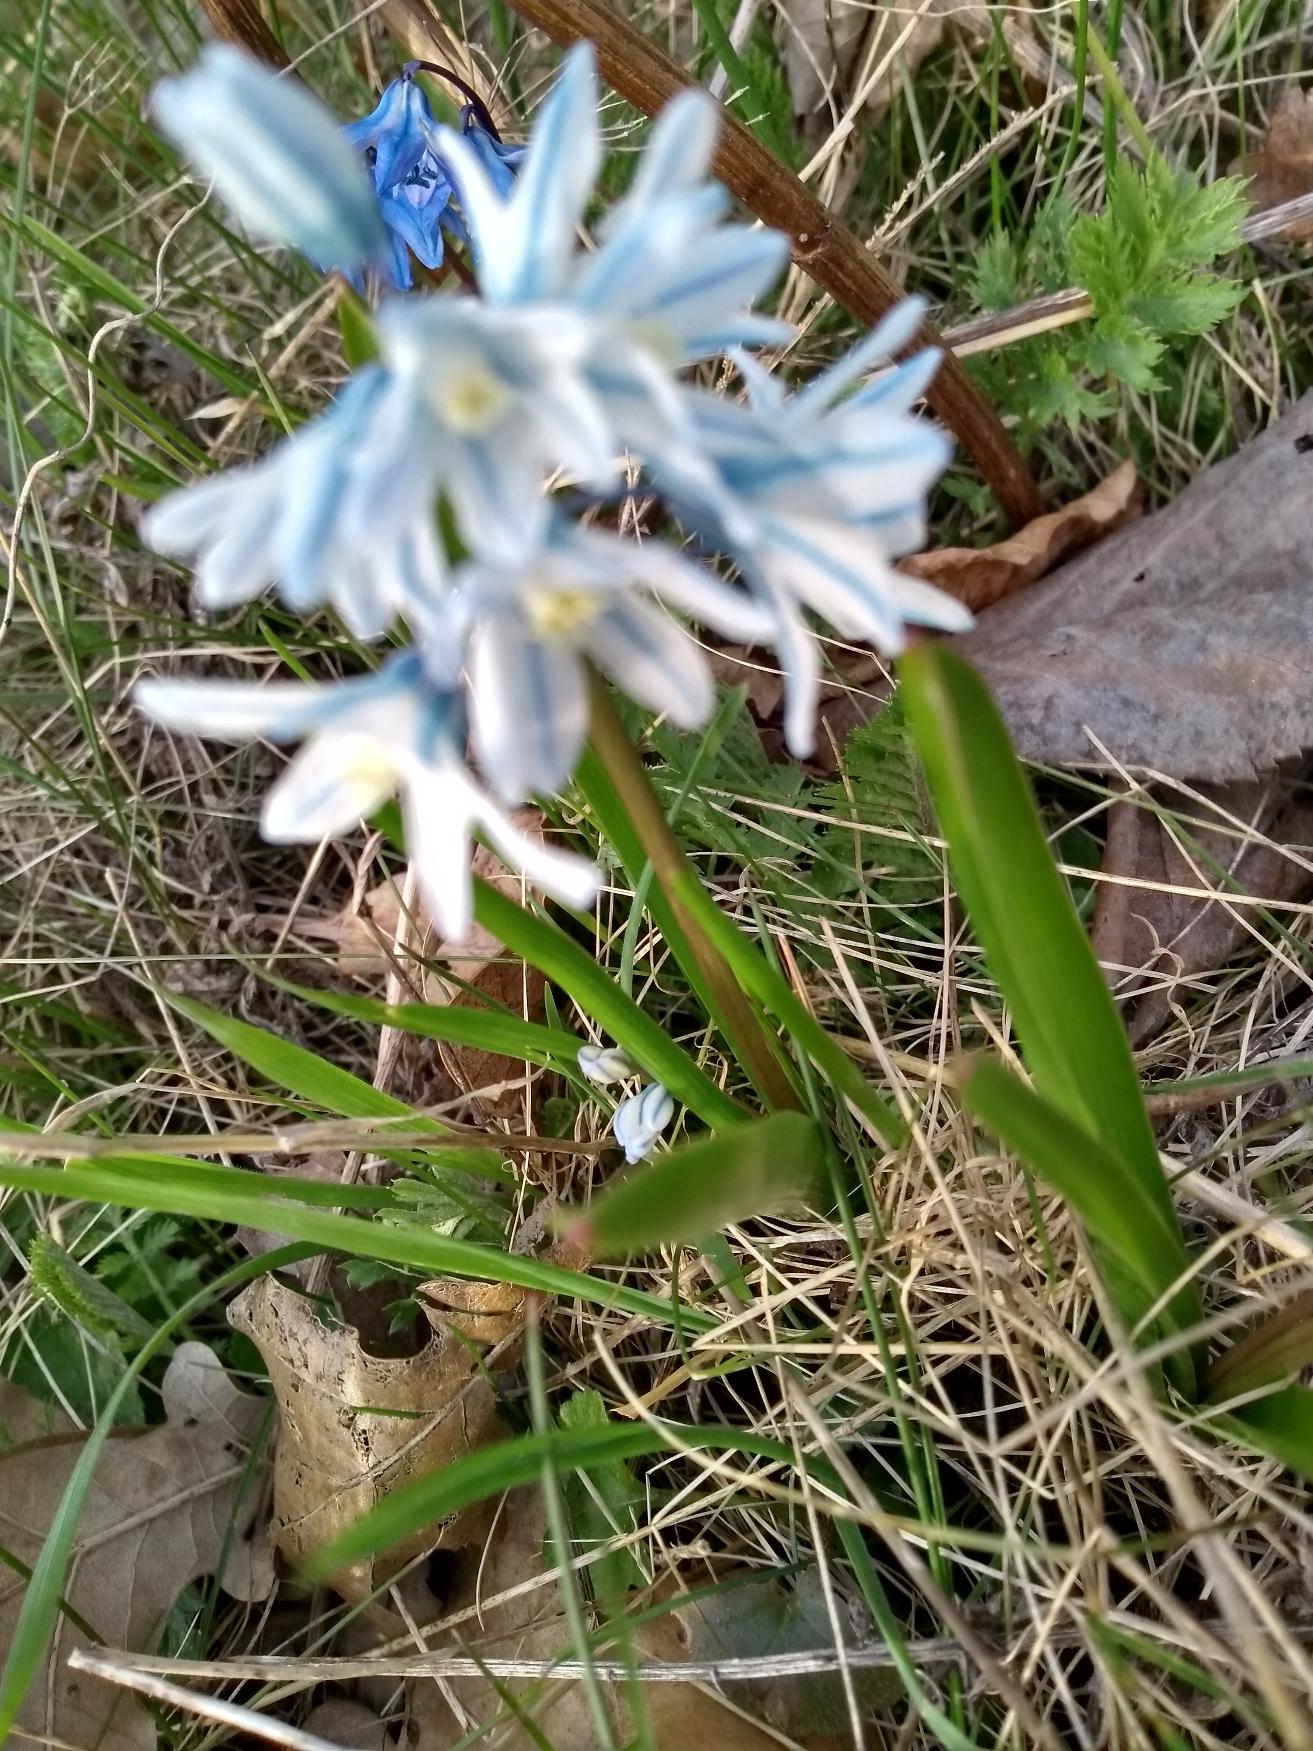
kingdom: Plantae
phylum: Tracheophyta
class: Liliopsida
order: Asparagales
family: Asparagaceae
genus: Puschkinia
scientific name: Puschkinia scilloides
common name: Porcelænshyacint
